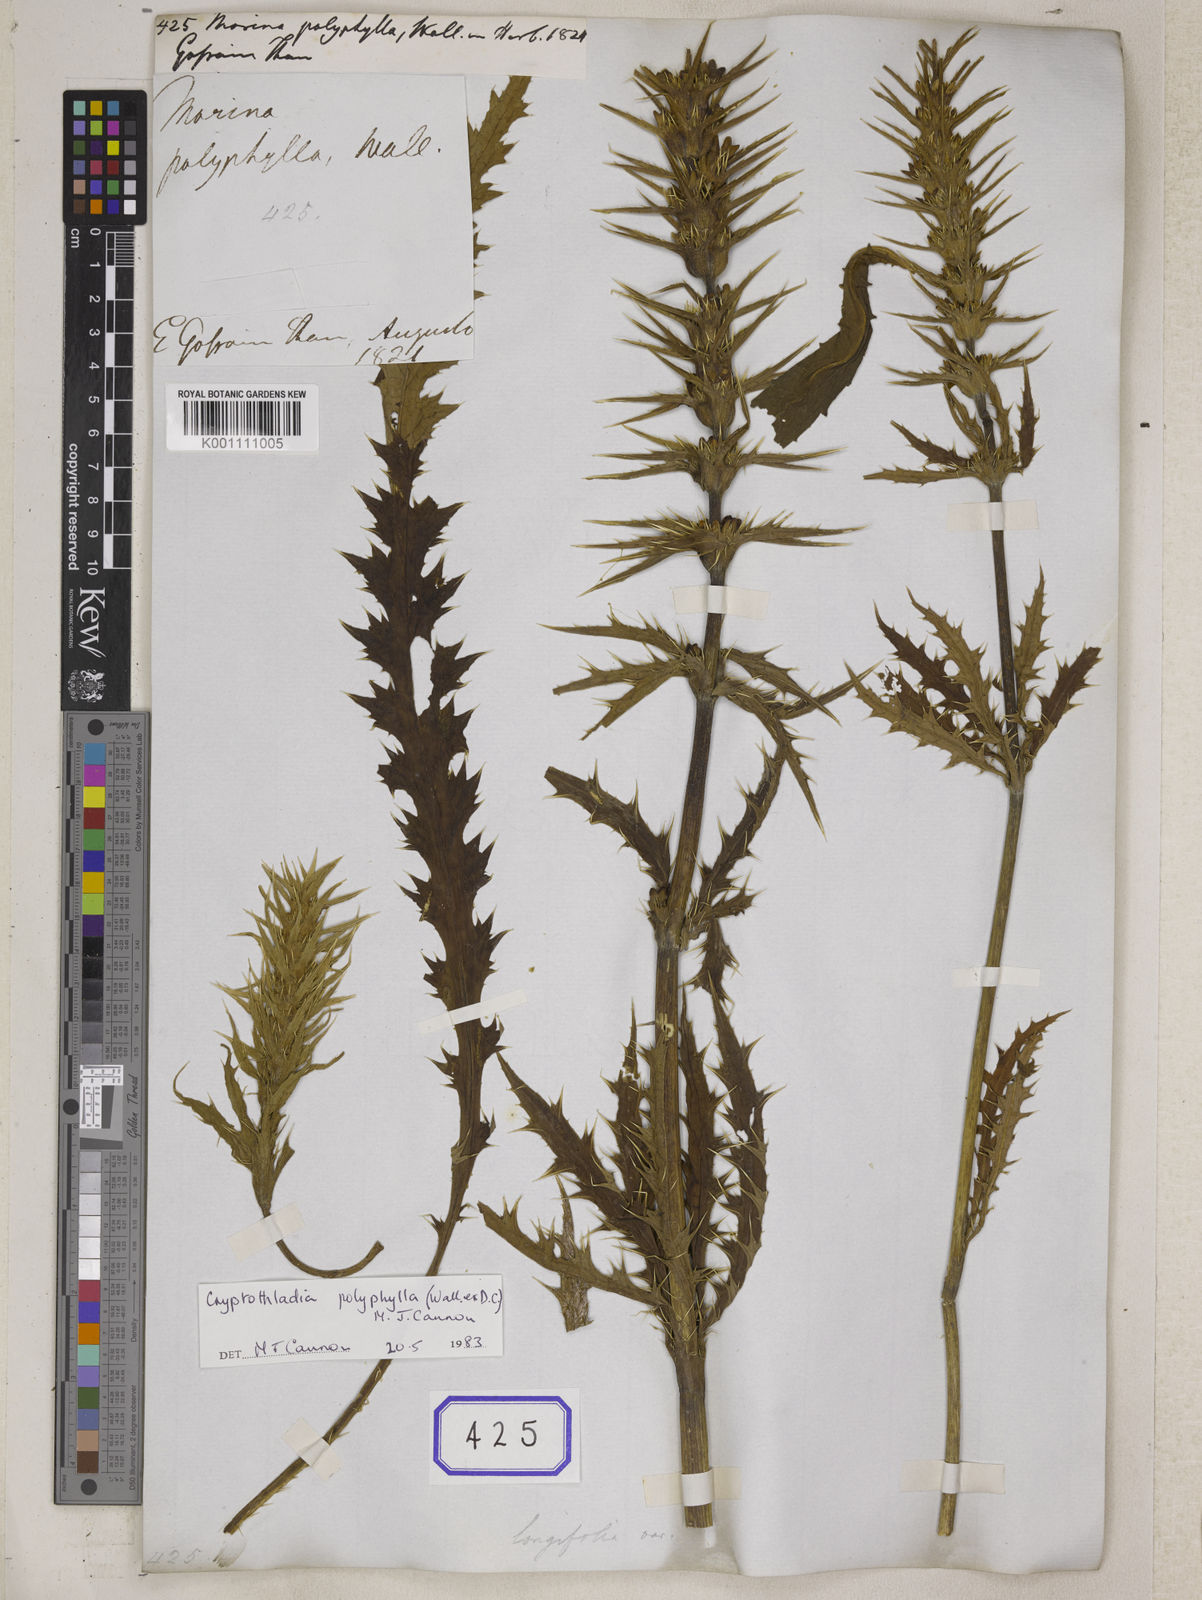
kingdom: Plantae
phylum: Tracheophyta
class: Magnoliopsida
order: Dipsacales
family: Caprifoliaceae
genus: Morina
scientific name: Morina
